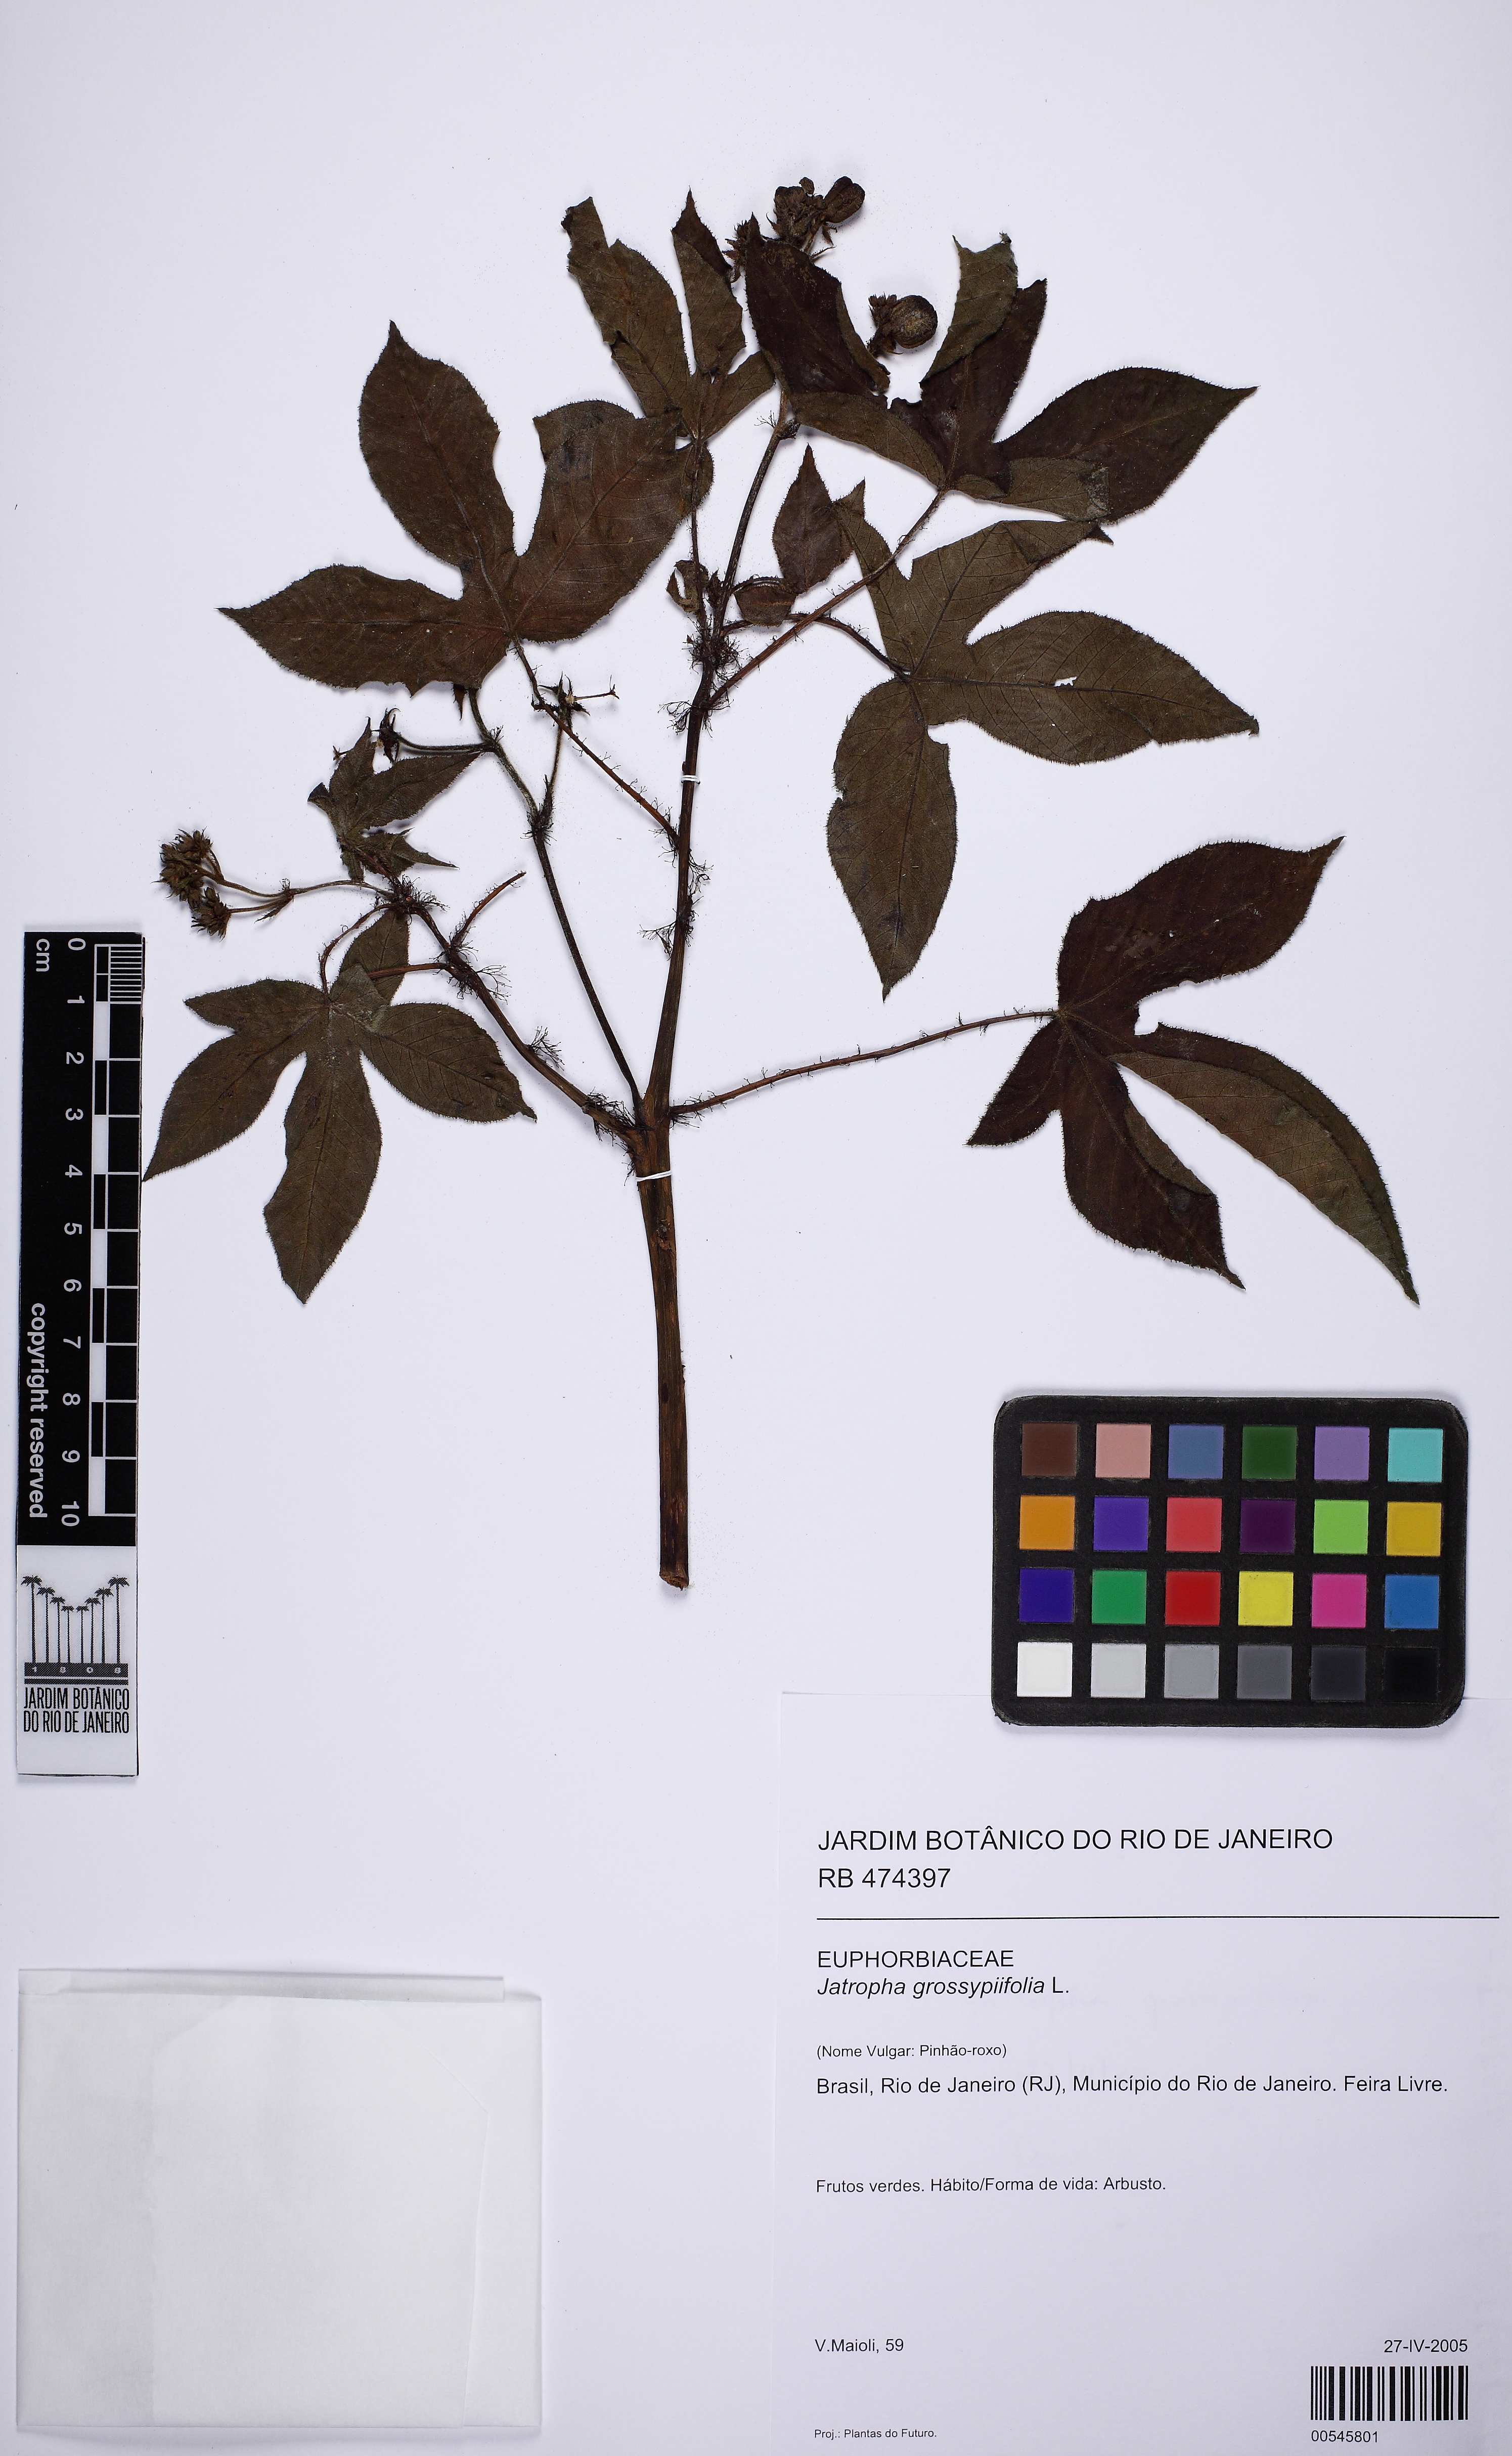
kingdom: Plantae
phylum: Tracheophyta
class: Magnoliopsida
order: Malpighiales
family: Euphorbiaceae
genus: Jatropha
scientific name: Jatropha gossypiifolia
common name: Bellyache bush
